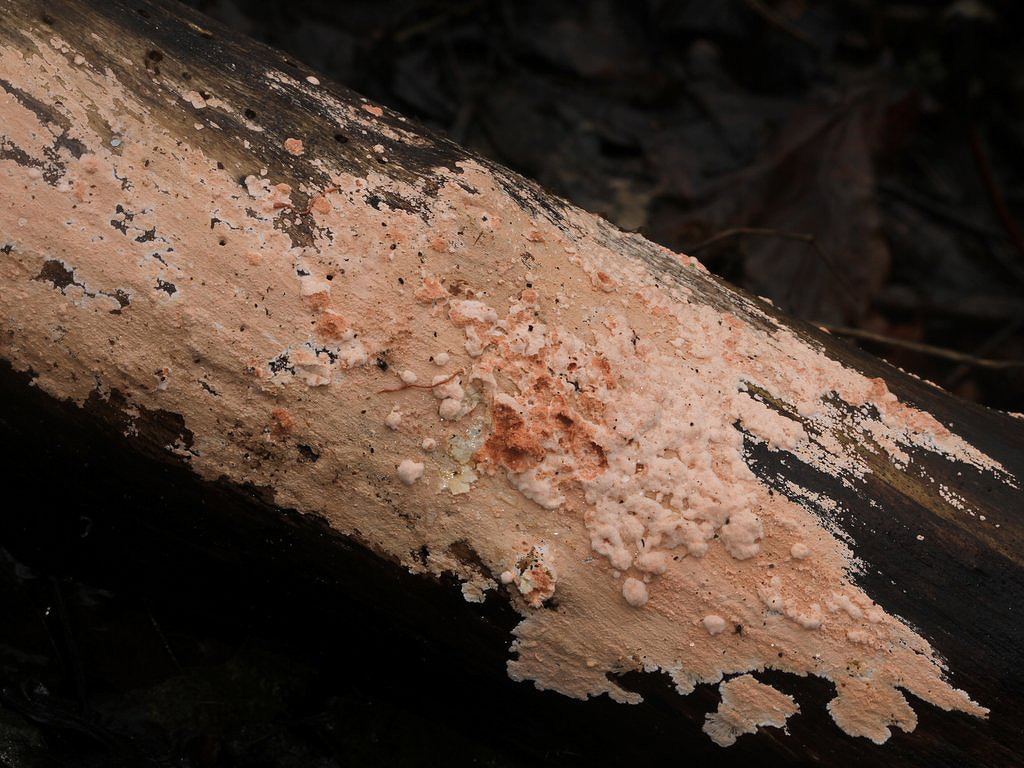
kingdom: Fungi
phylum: Basidiomycota
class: Agaricomycetes
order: Corticiales
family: Corticiaceae
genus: Corticium
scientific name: Corticium roseum
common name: rosa barkskind
